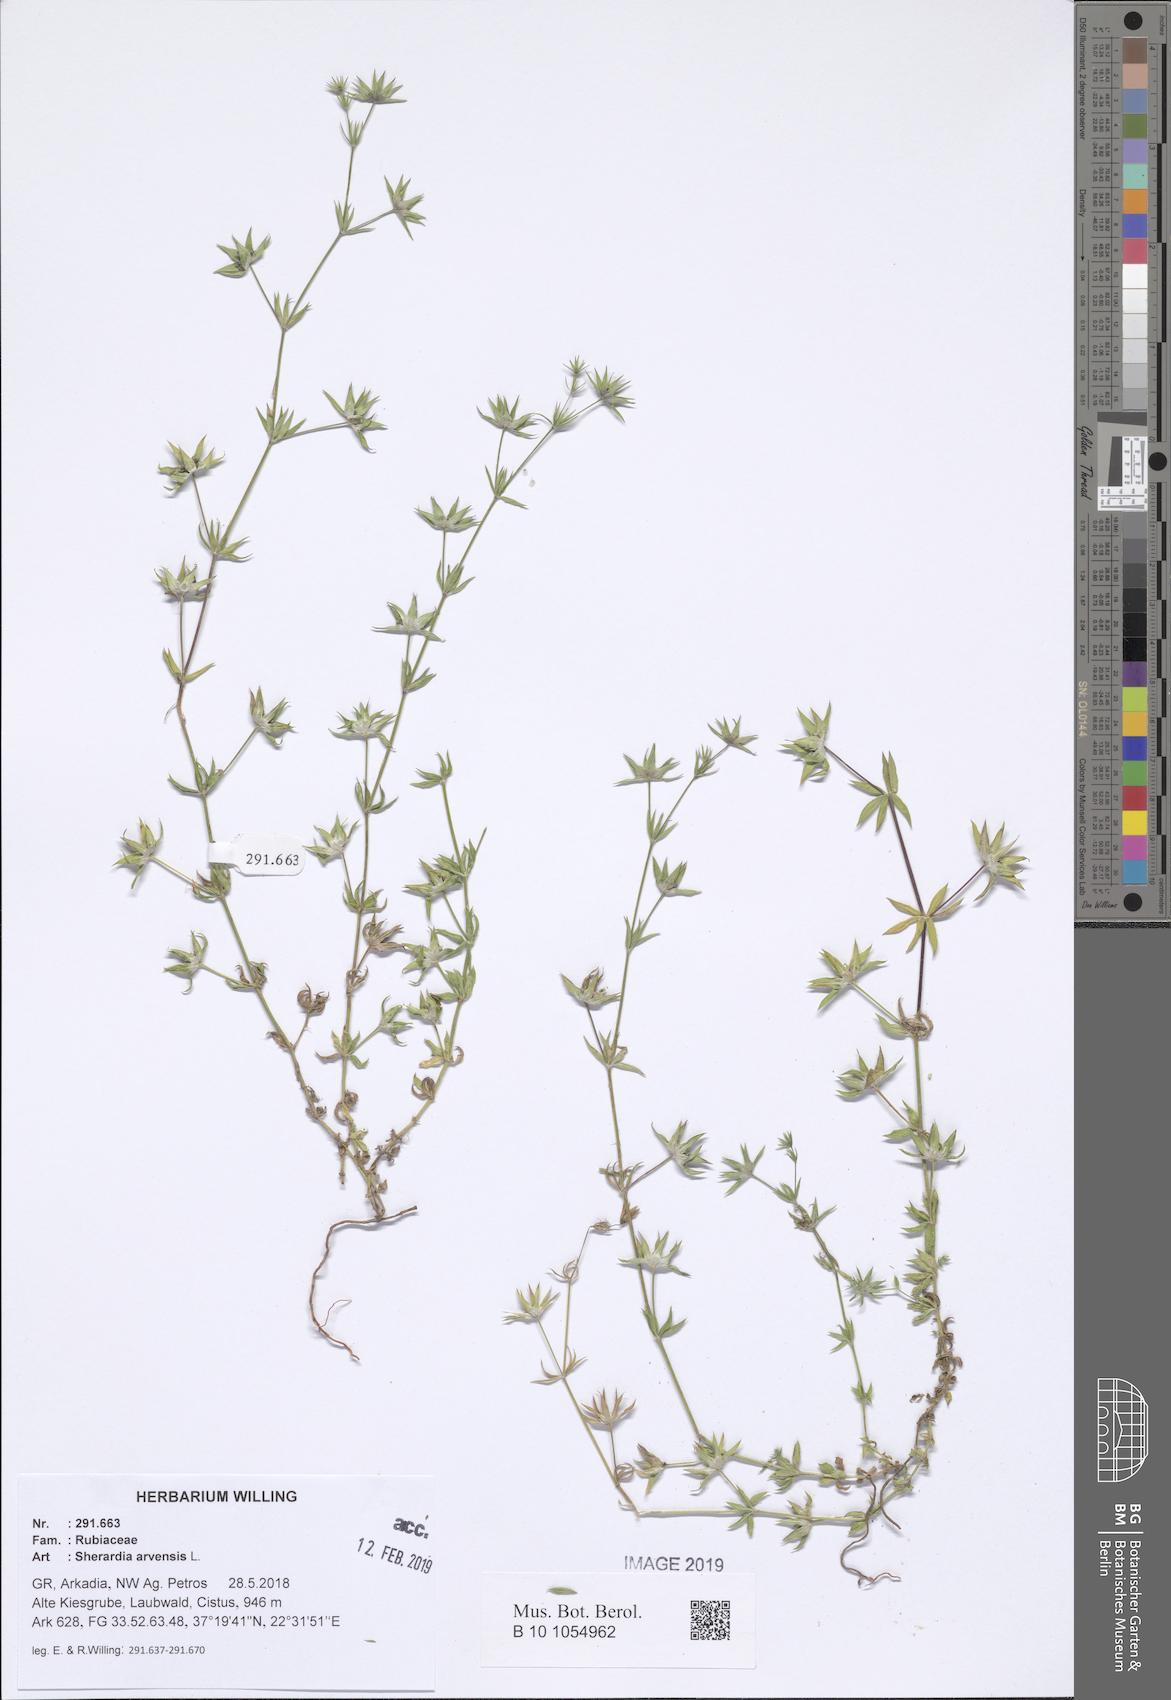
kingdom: Plantae
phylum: Tracheophyta
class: Magnoliopsida
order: Gentianales
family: Rubiaceae
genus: Sherardia
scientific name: Sherardia arvensis
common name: Field madder
